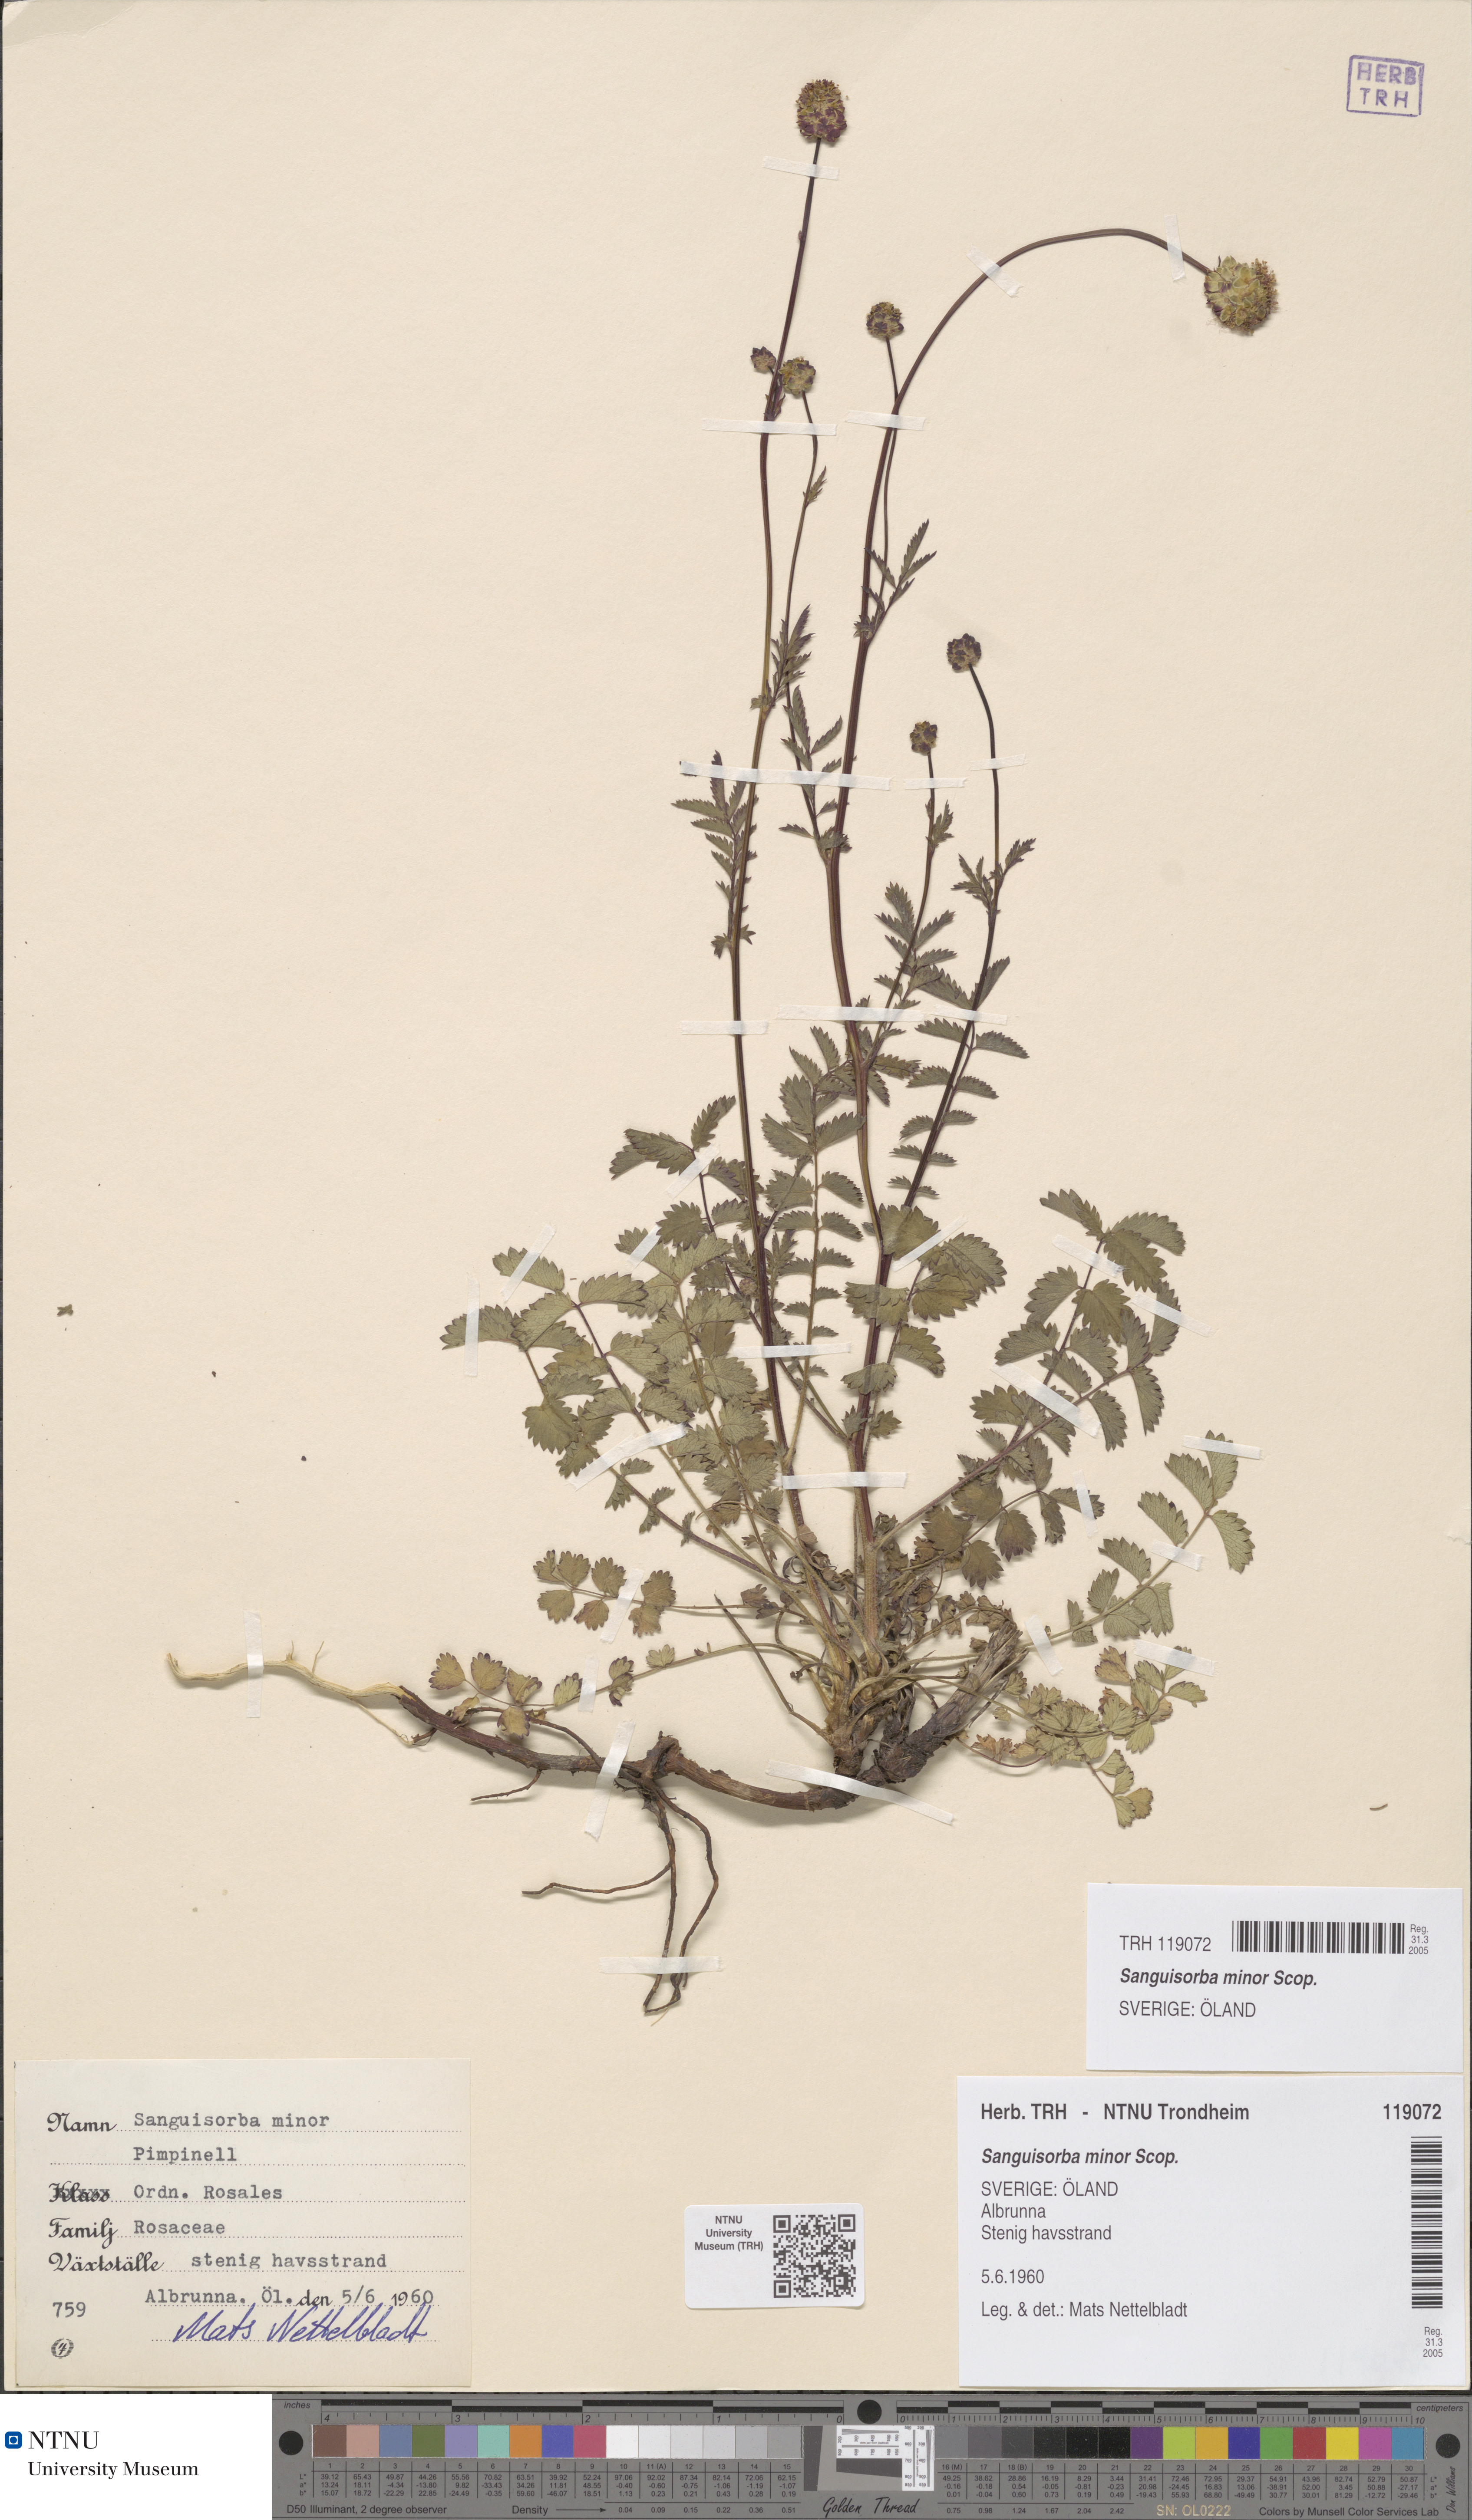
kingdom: Plantae
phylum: Tracheophyta
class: Magnoliopsida
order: Rosales
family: Rosaceae
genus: Poterium
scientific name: Poterium sanguisorba
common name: Salad burnet
